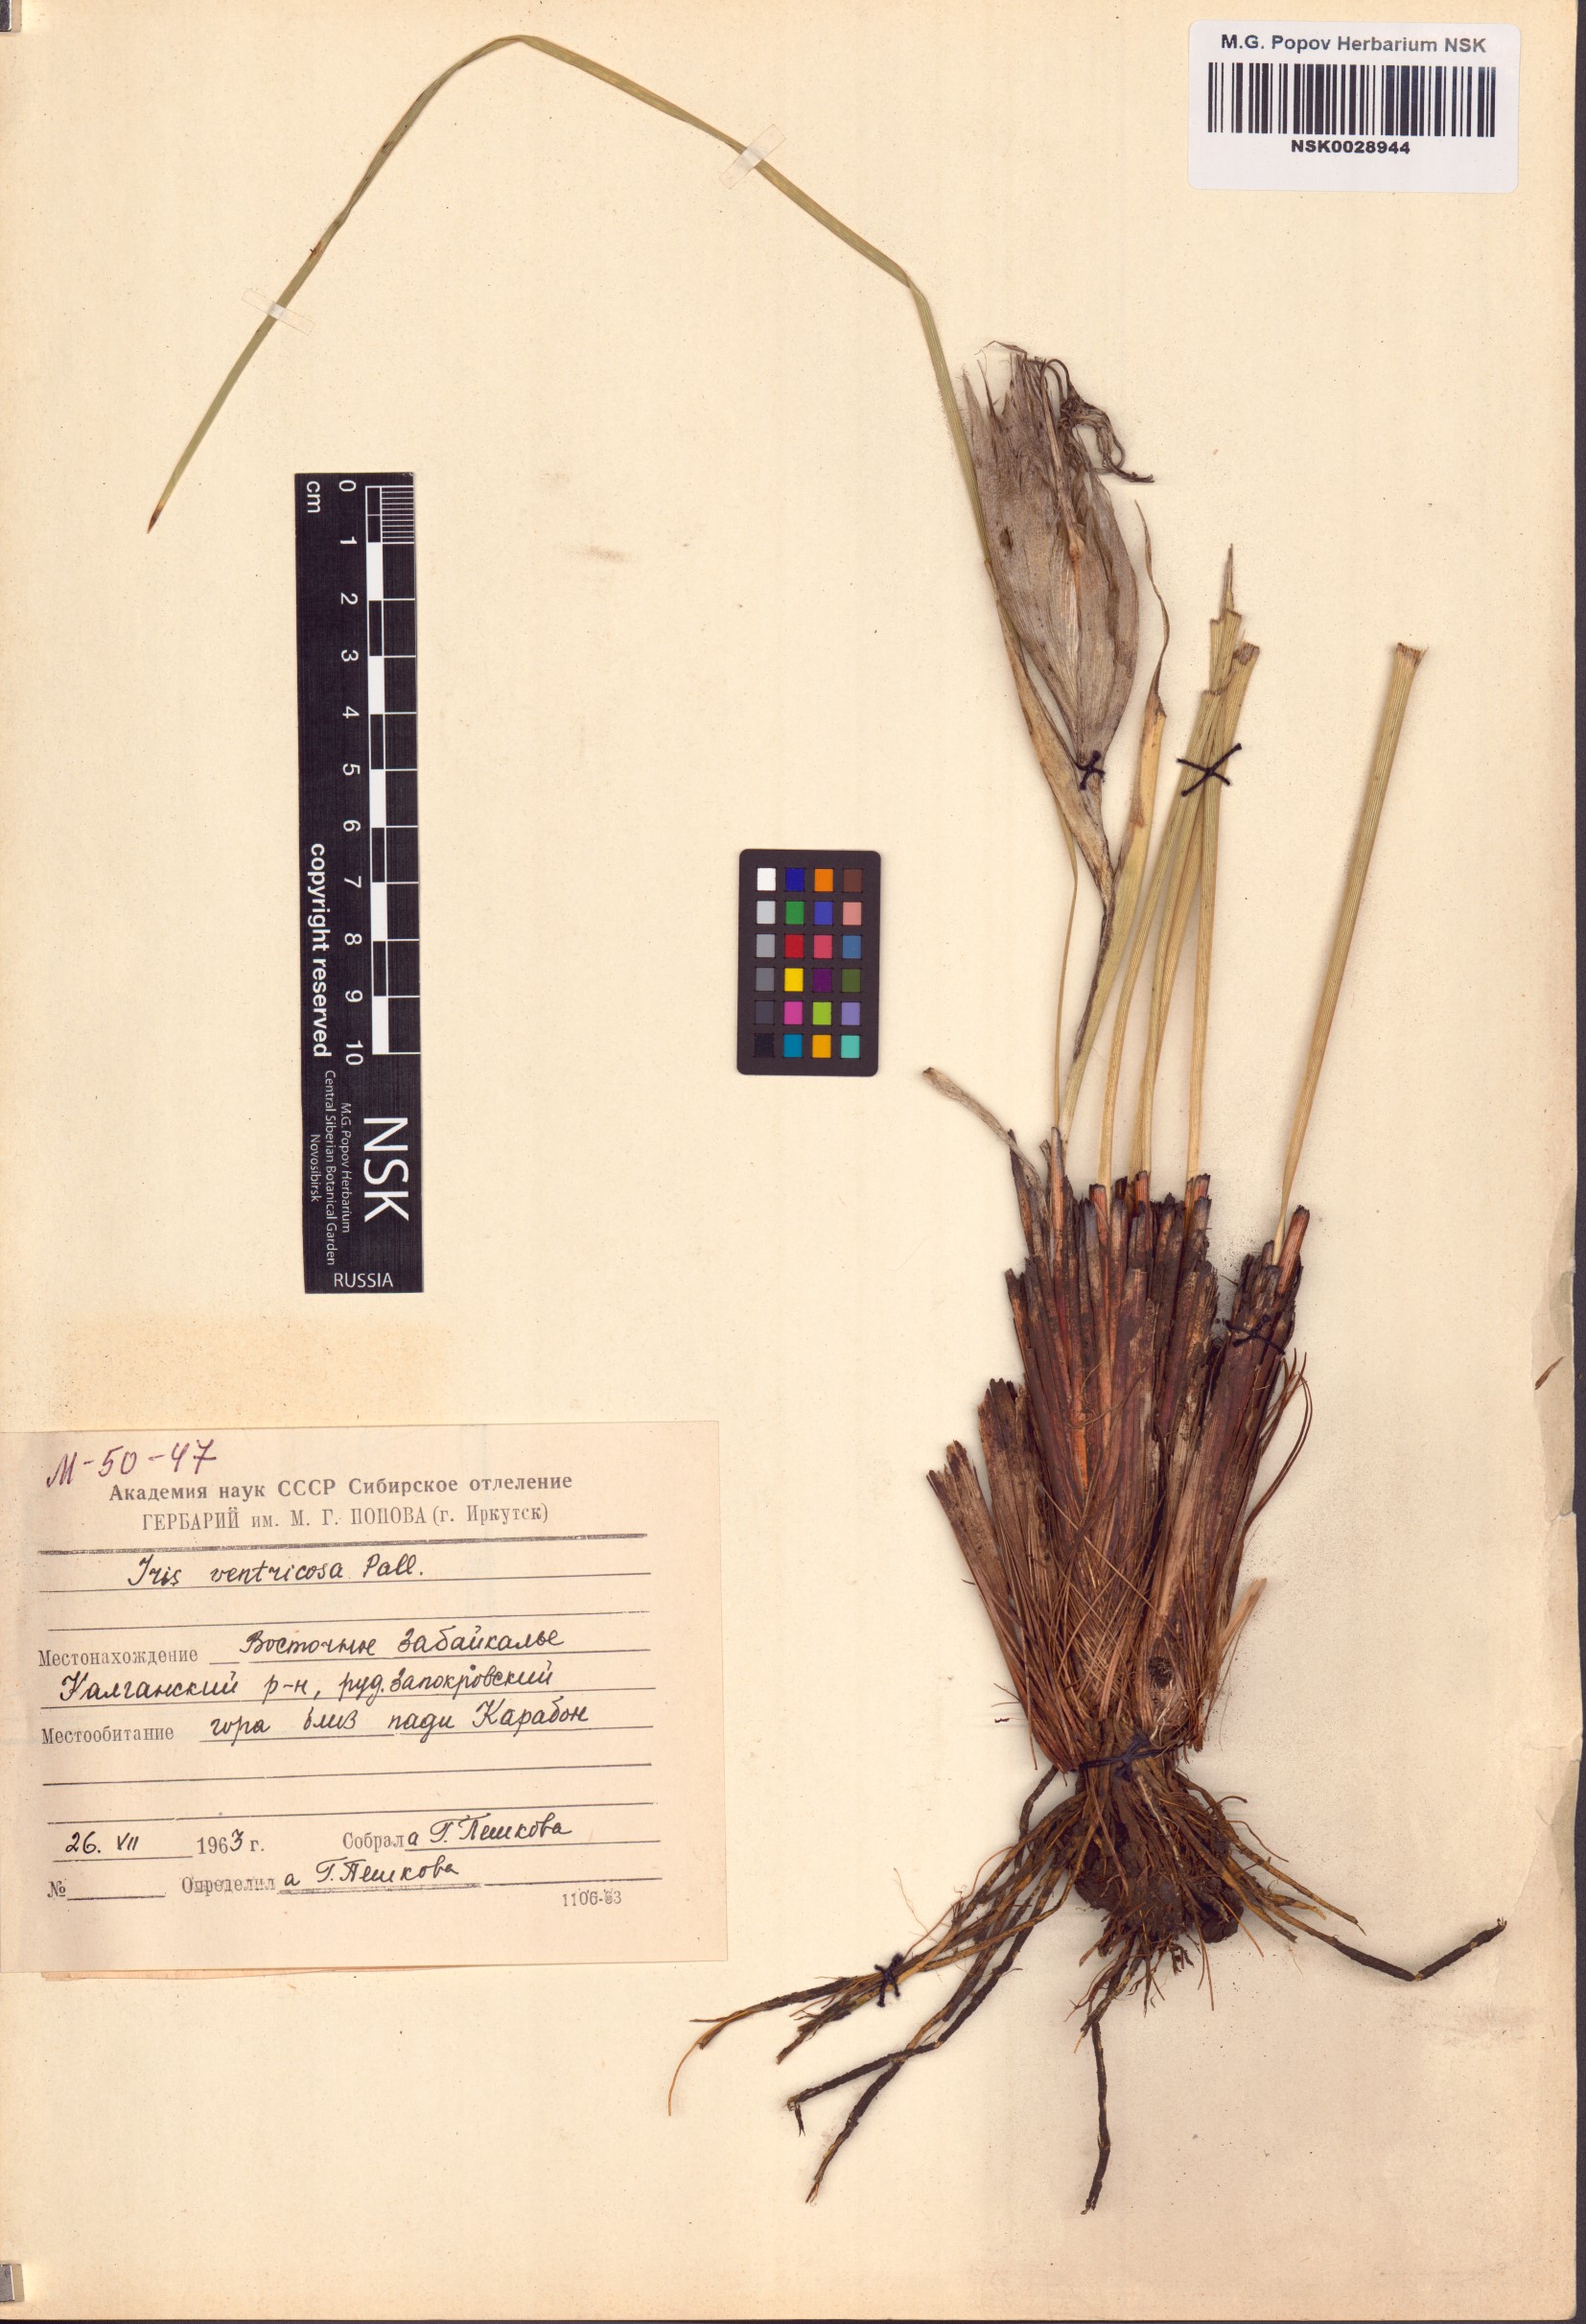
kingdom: Plantae
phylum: Tracheophyta
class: Liliopsida
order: Asparagales
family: Iridaceae
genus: Iris
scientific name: Iris ventricosa
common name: Purple-flower iris
